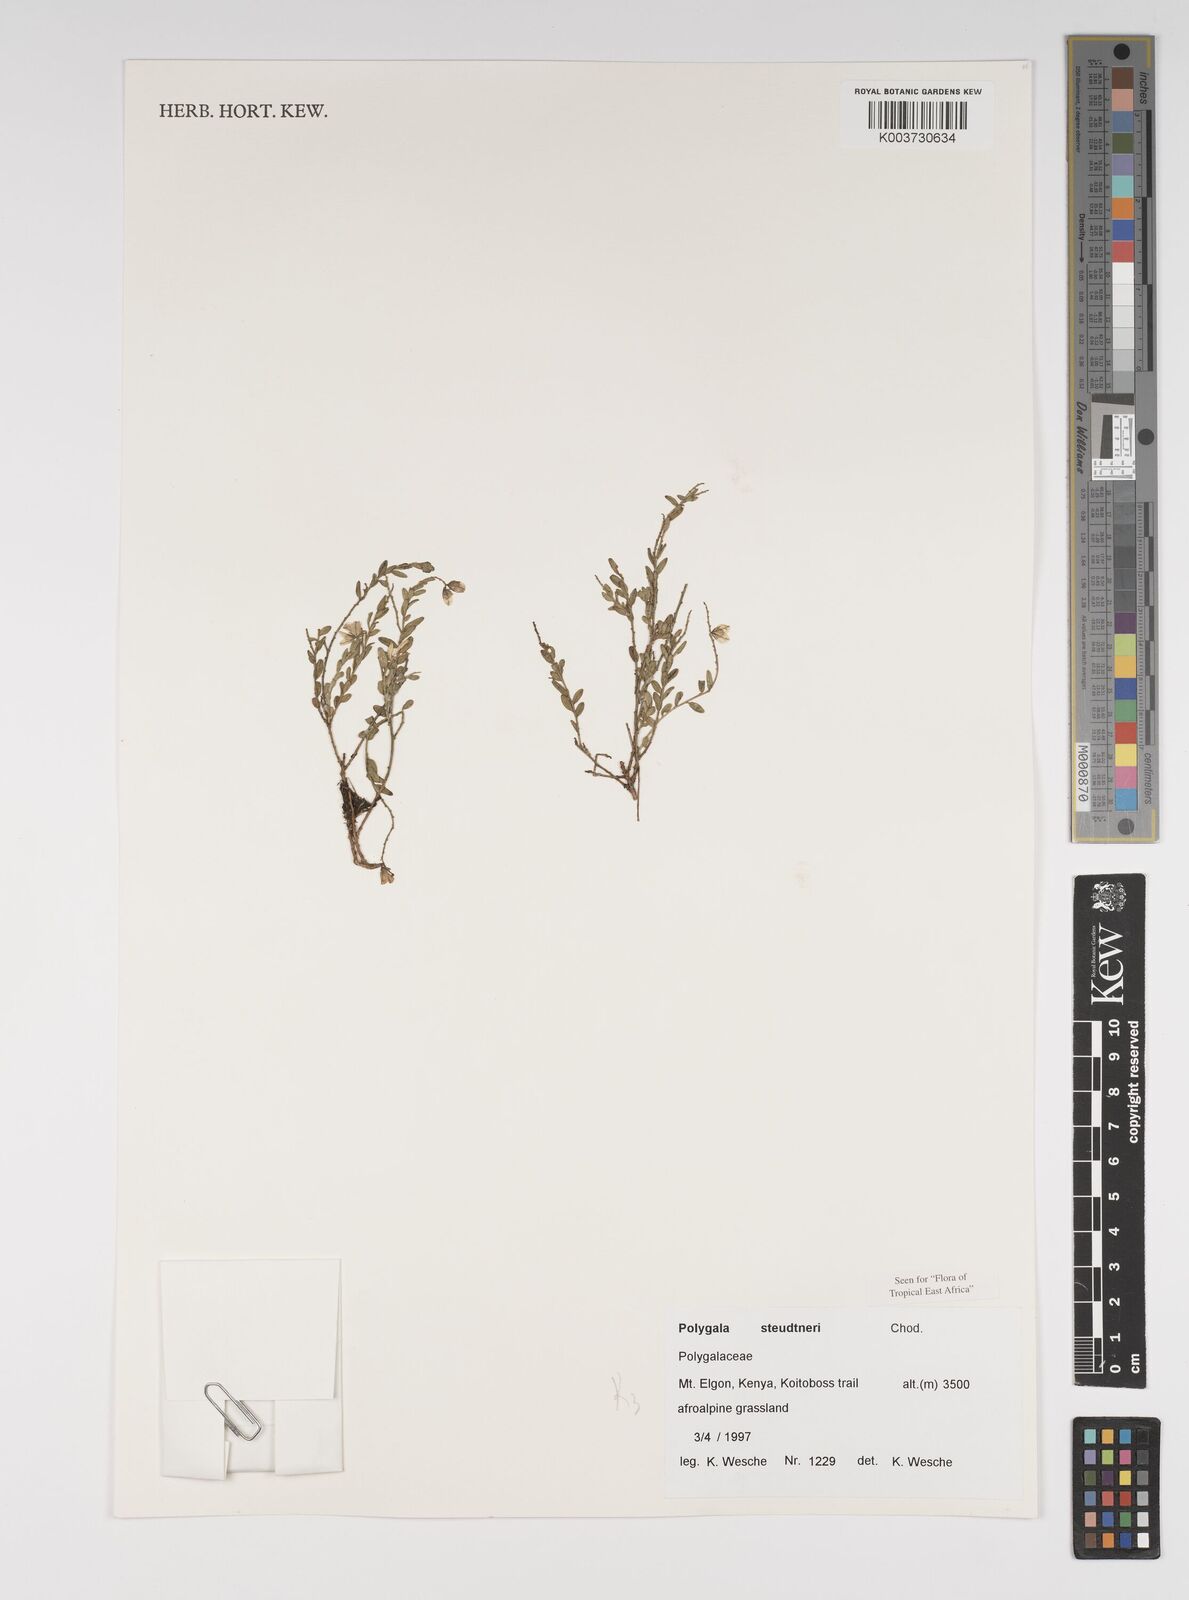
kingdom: Plantae
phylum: Tracheophyta
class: Magnoliopsida
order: Fabales
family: Polygalaceae
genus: Polygala
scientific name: Polygala steudneri
